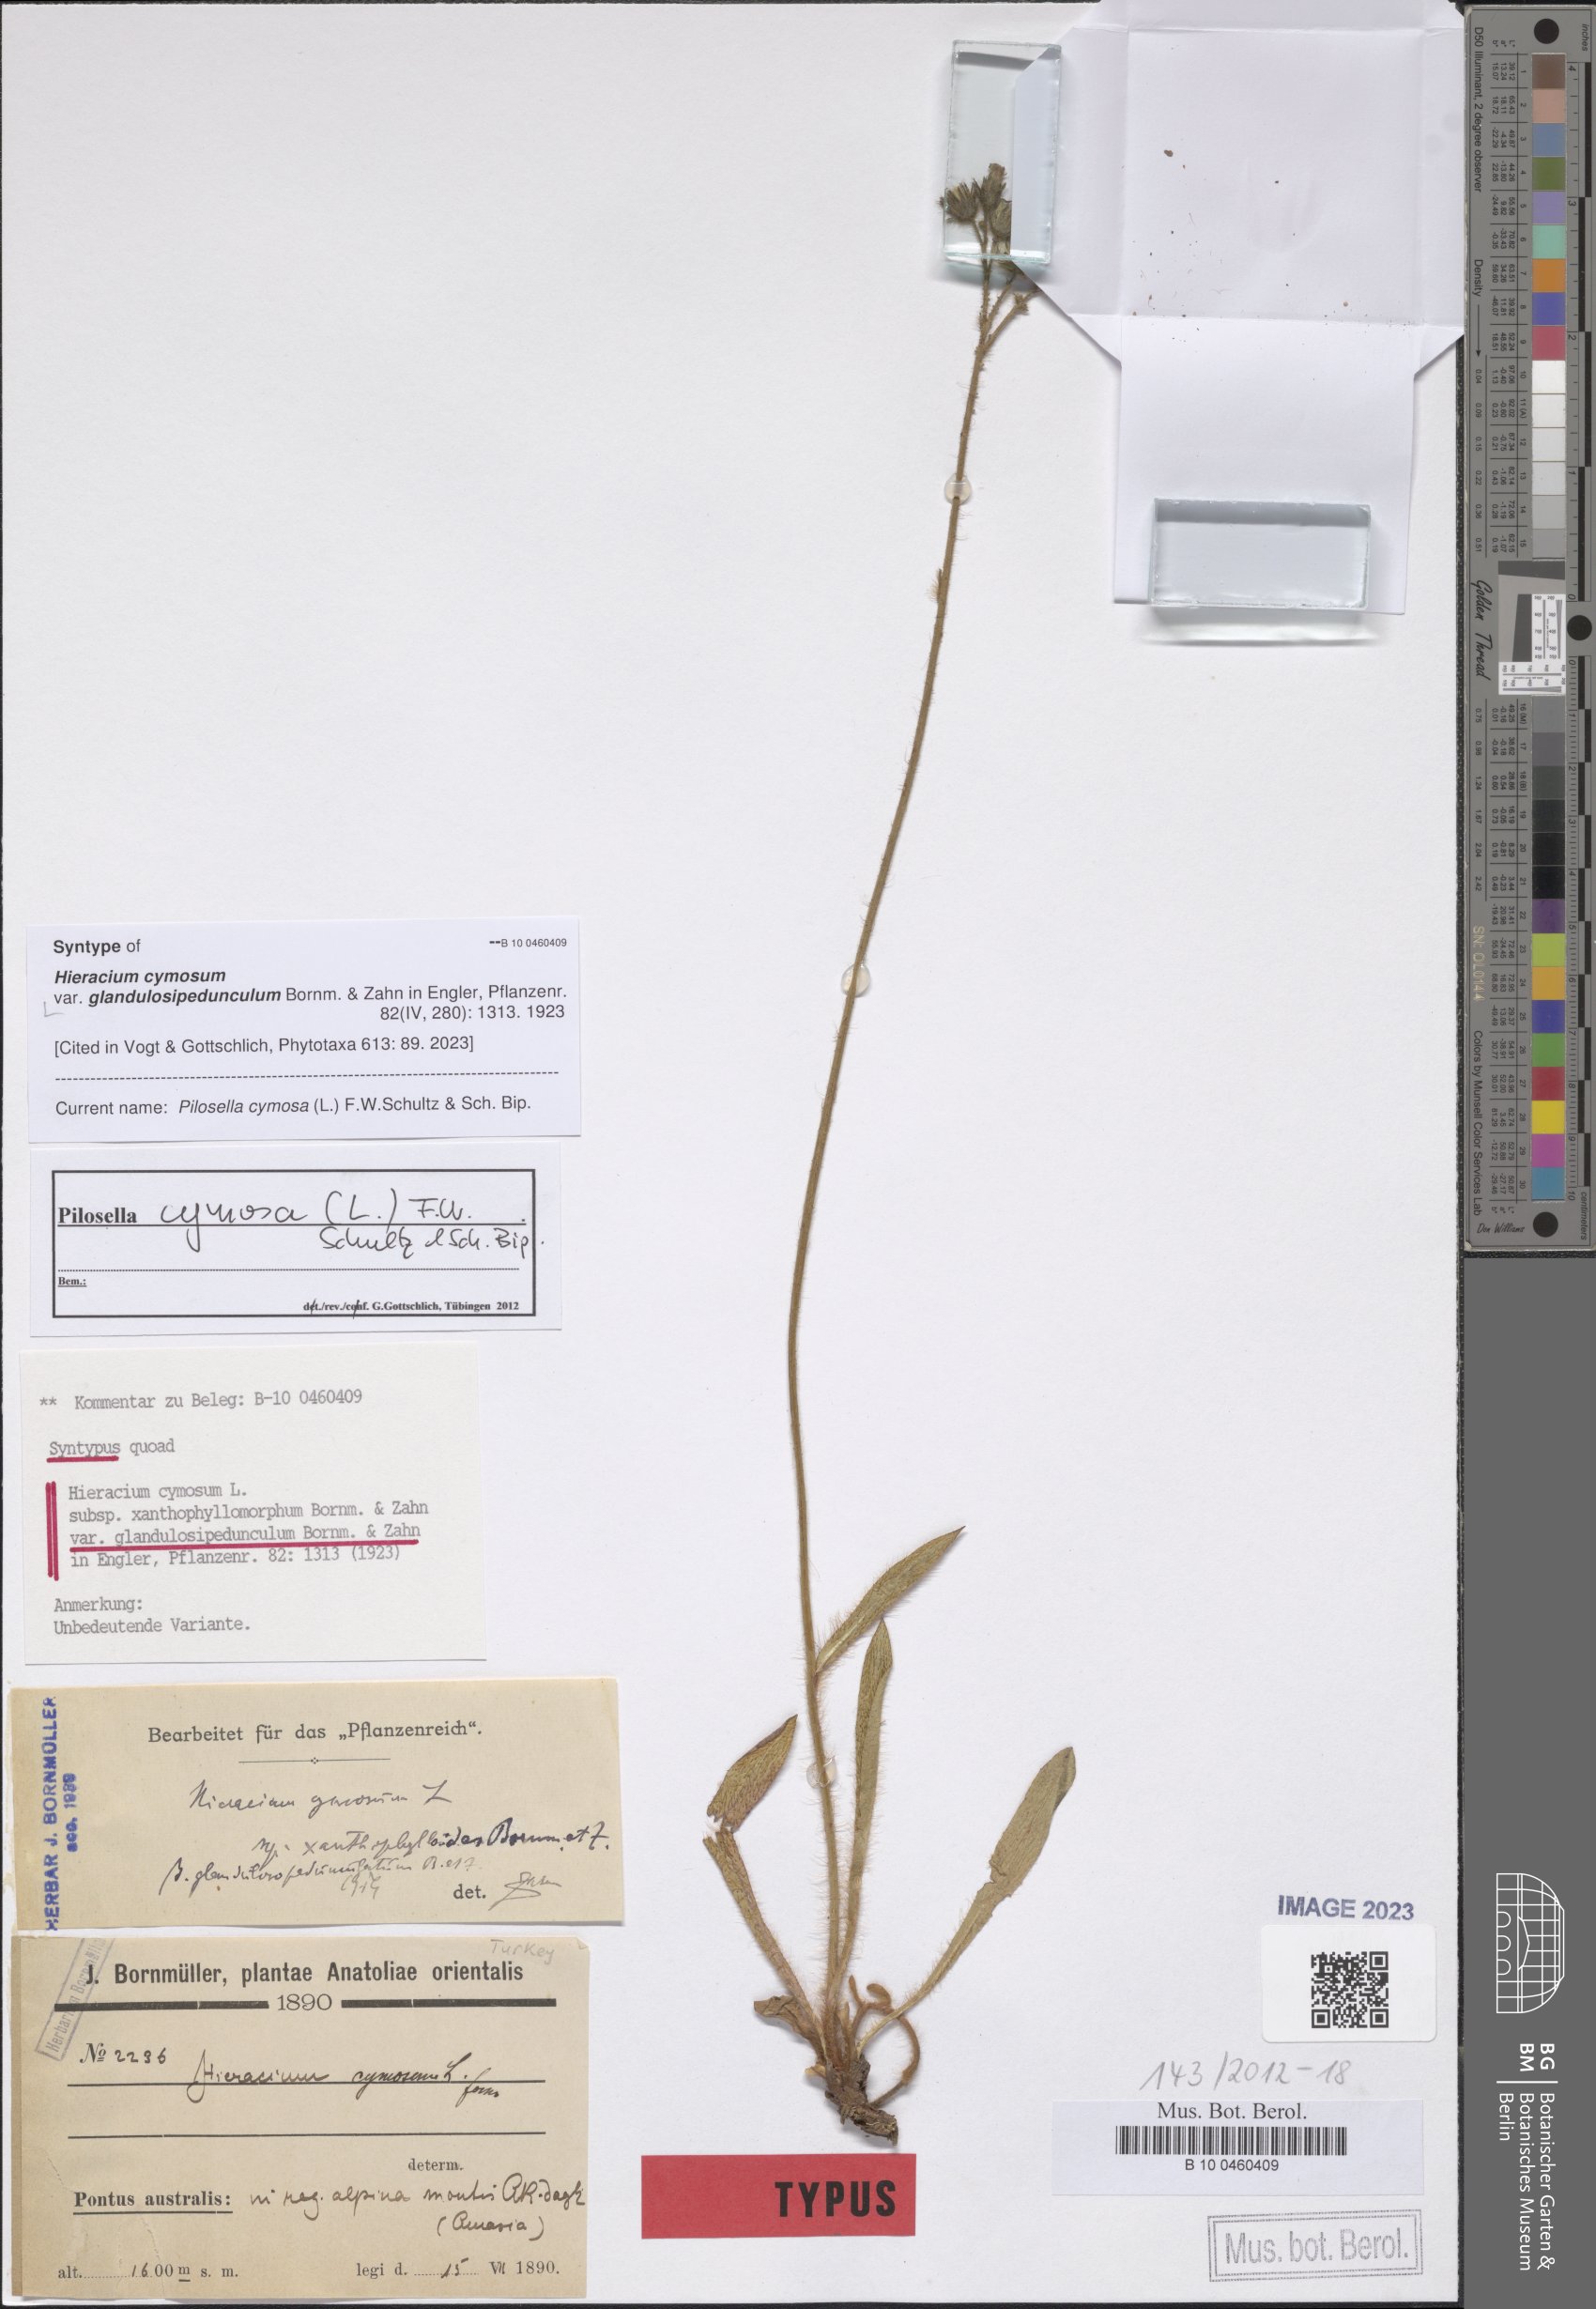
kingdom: Plantae
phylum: Tracheophyta
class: Magnoliopsida
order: Asterales
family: Asteraceae
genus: Hieracium
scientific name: Hieracium cymosum
